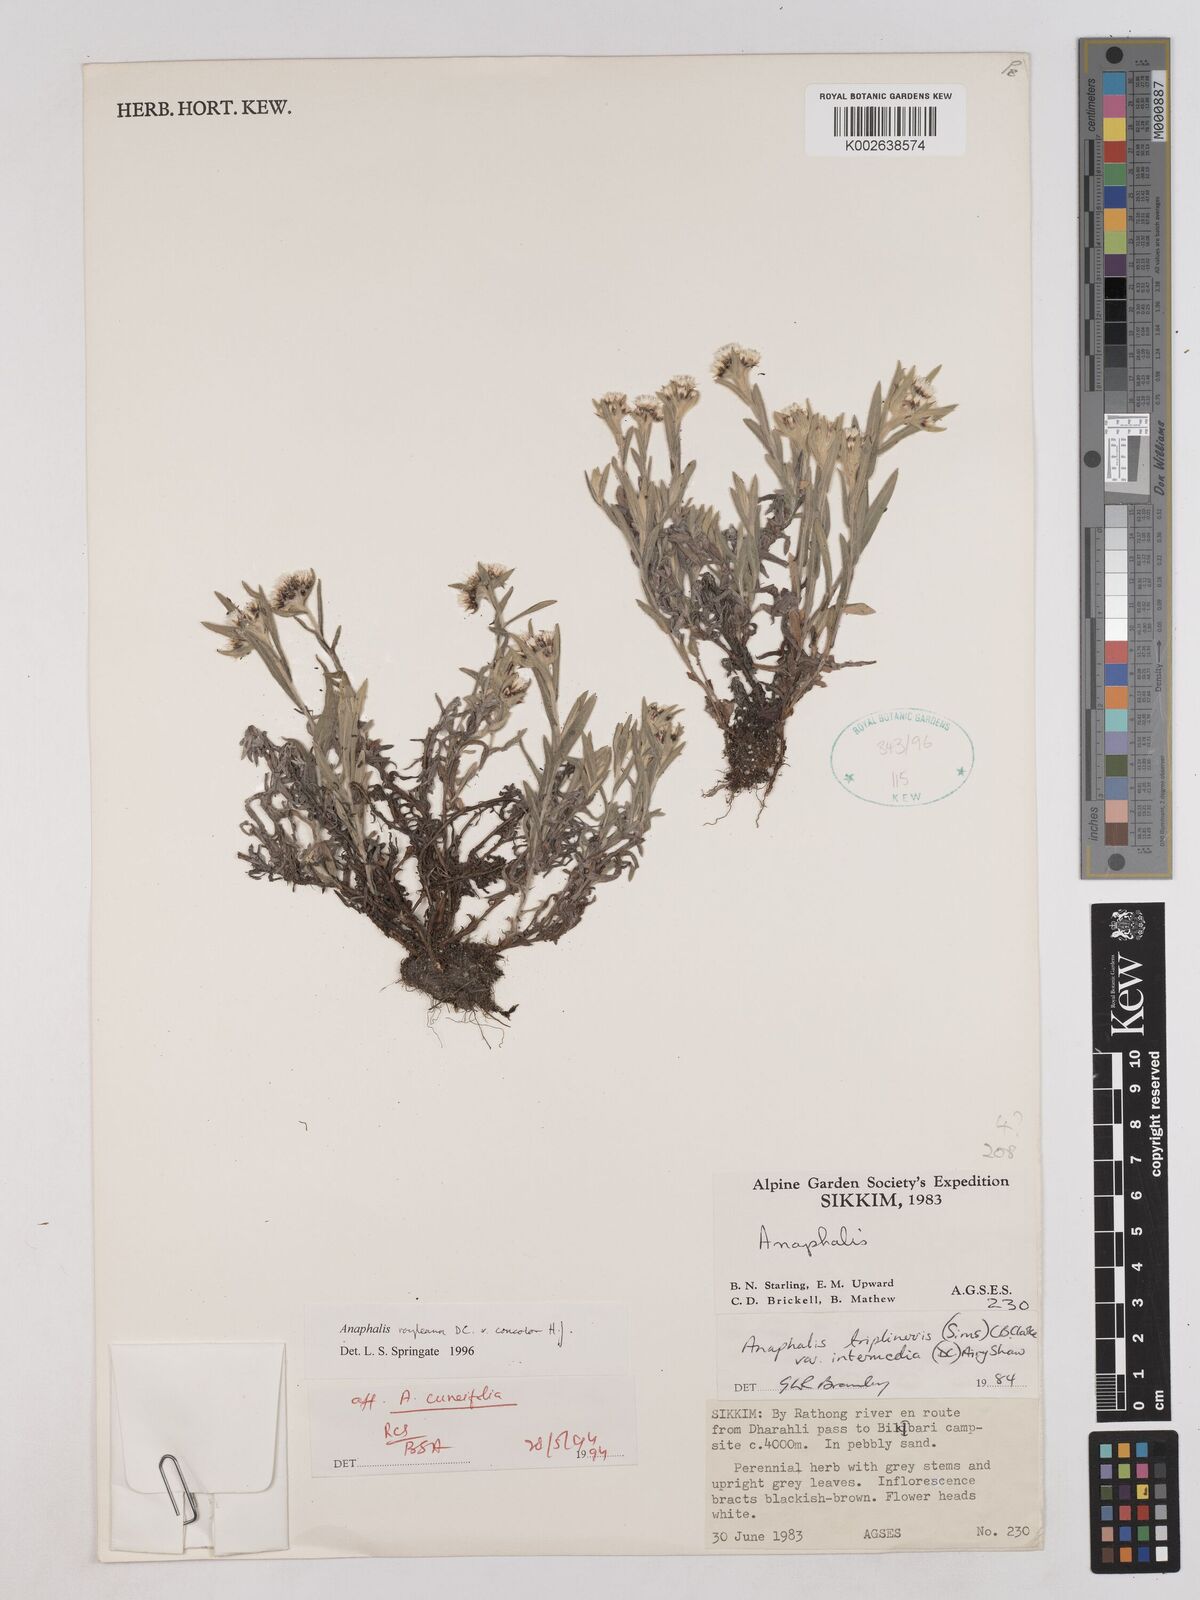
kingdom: Plantae
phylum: Tracheophyta
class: Magnoliopsida
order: Asterales
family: Asteraceae
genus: Anaphalis
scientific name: Anaphalis royleana
